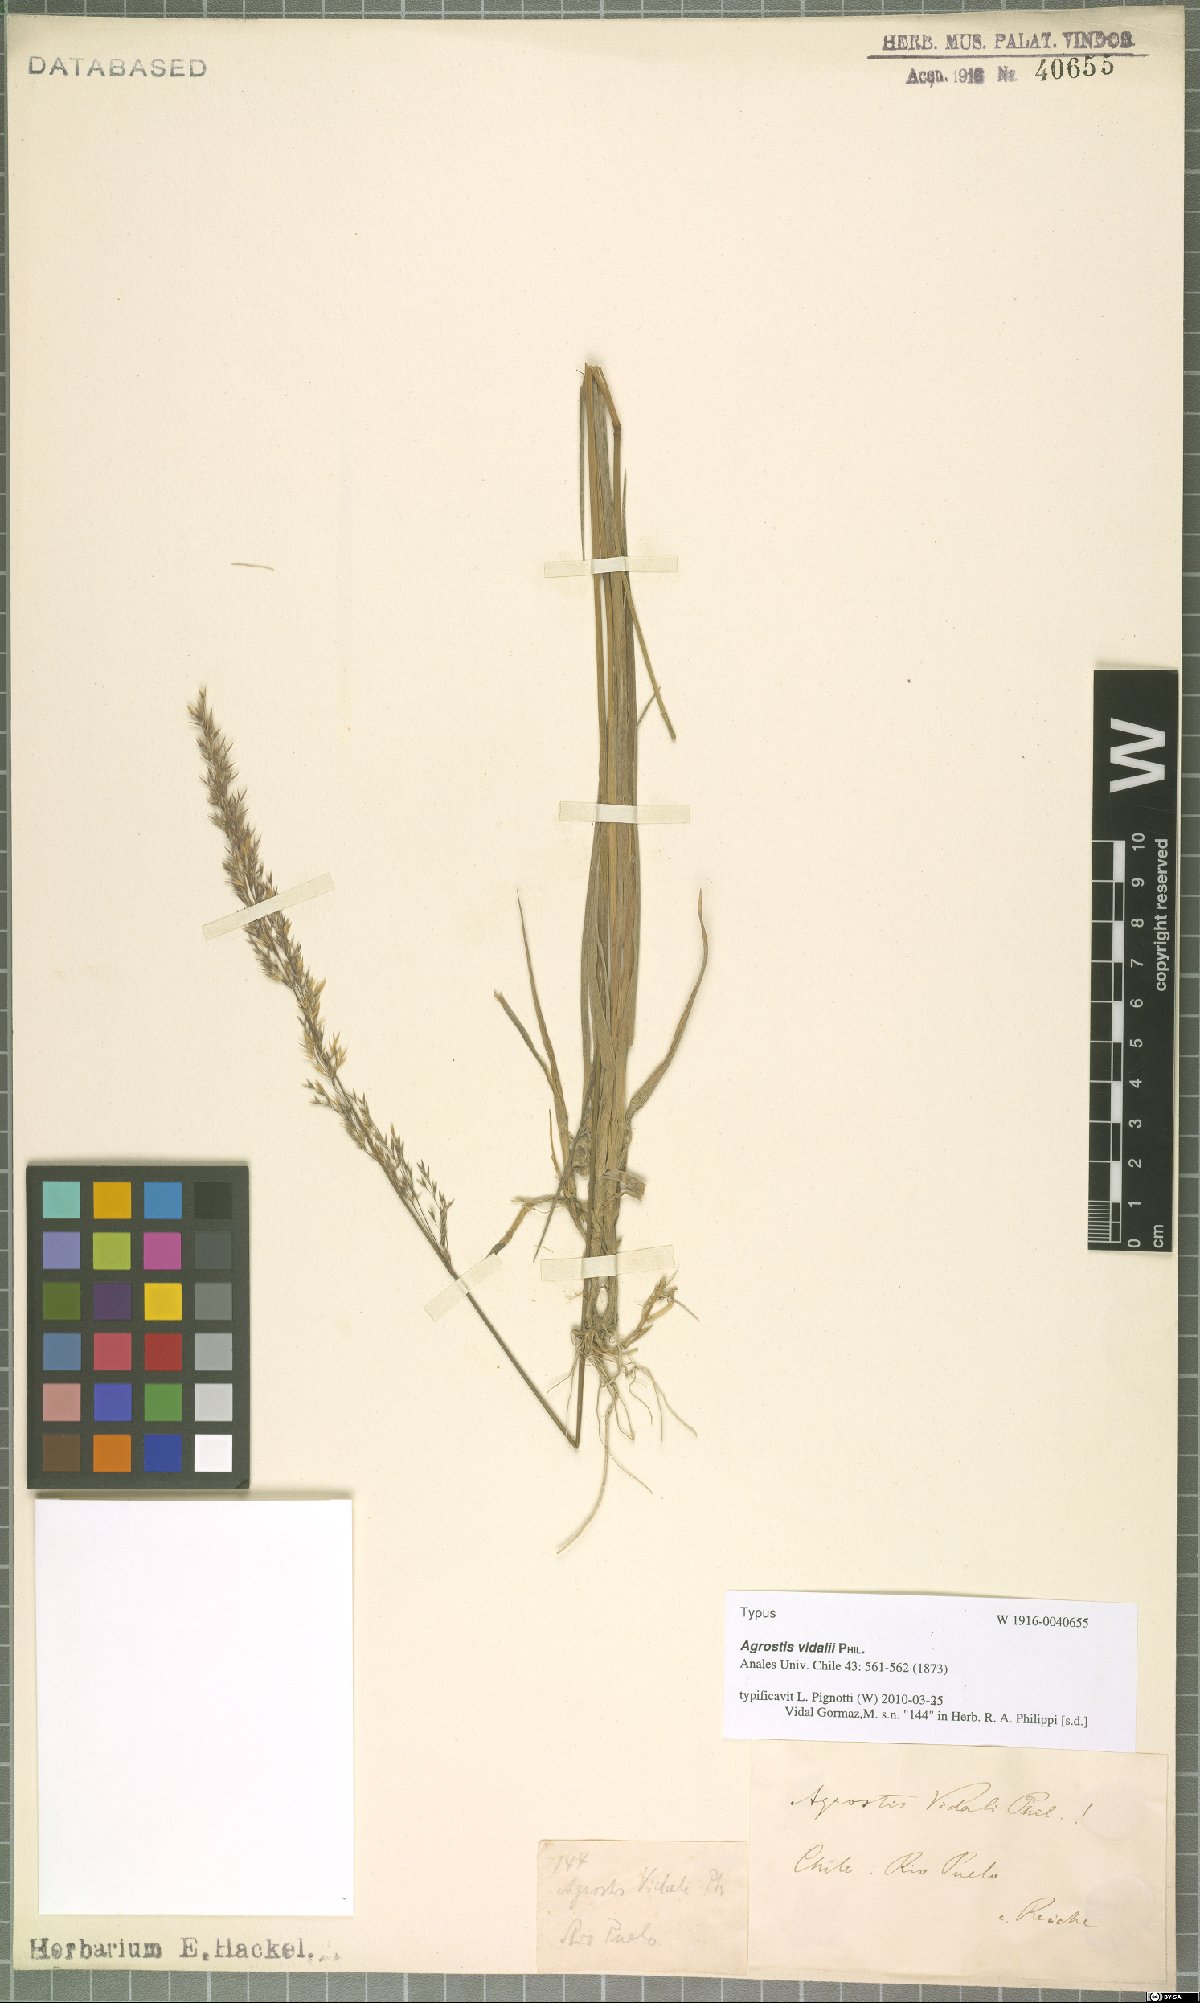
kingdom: Plantae
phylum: Tracheophyta
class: Liliopsida
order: Poales
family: Poaceae
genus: Agrostis
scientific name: Agrostis vidalii
